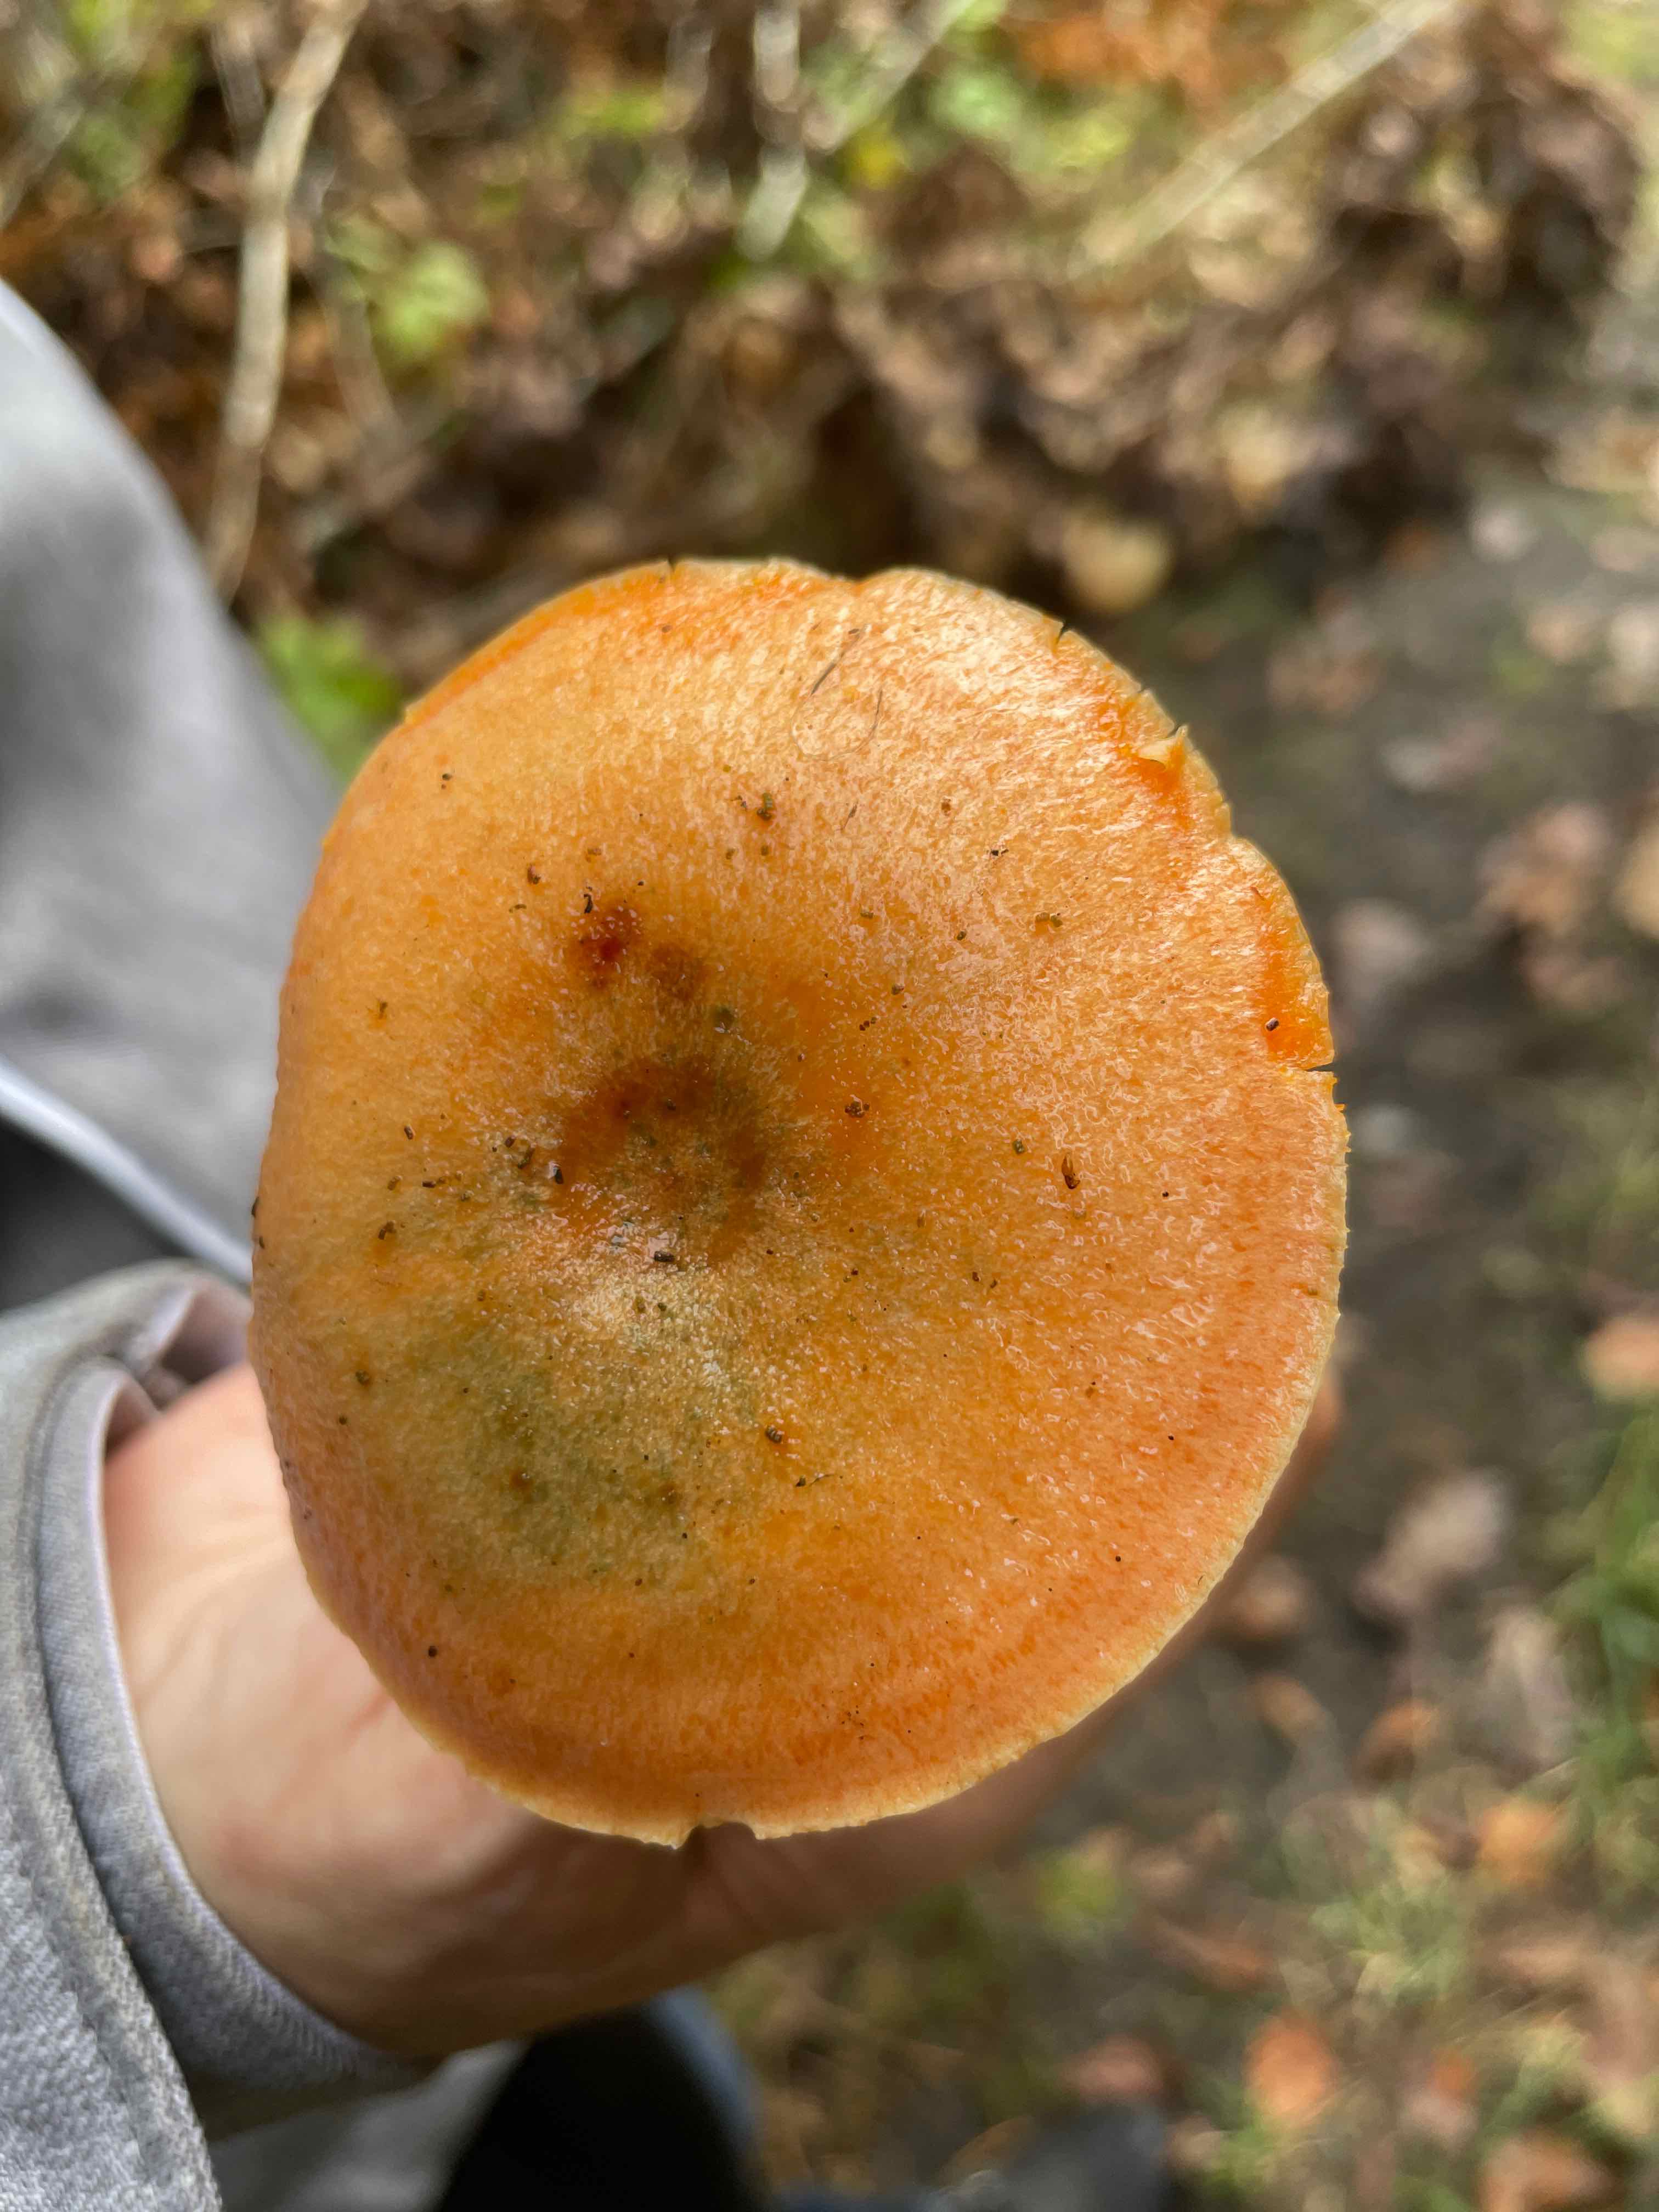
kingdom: Fungi
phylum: Basidiomycota
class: Agaricomycetes
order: Russulales
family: Russulaceae
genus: Lactarius
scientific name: Lactarius deterrimus
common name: gran-mælkehat
